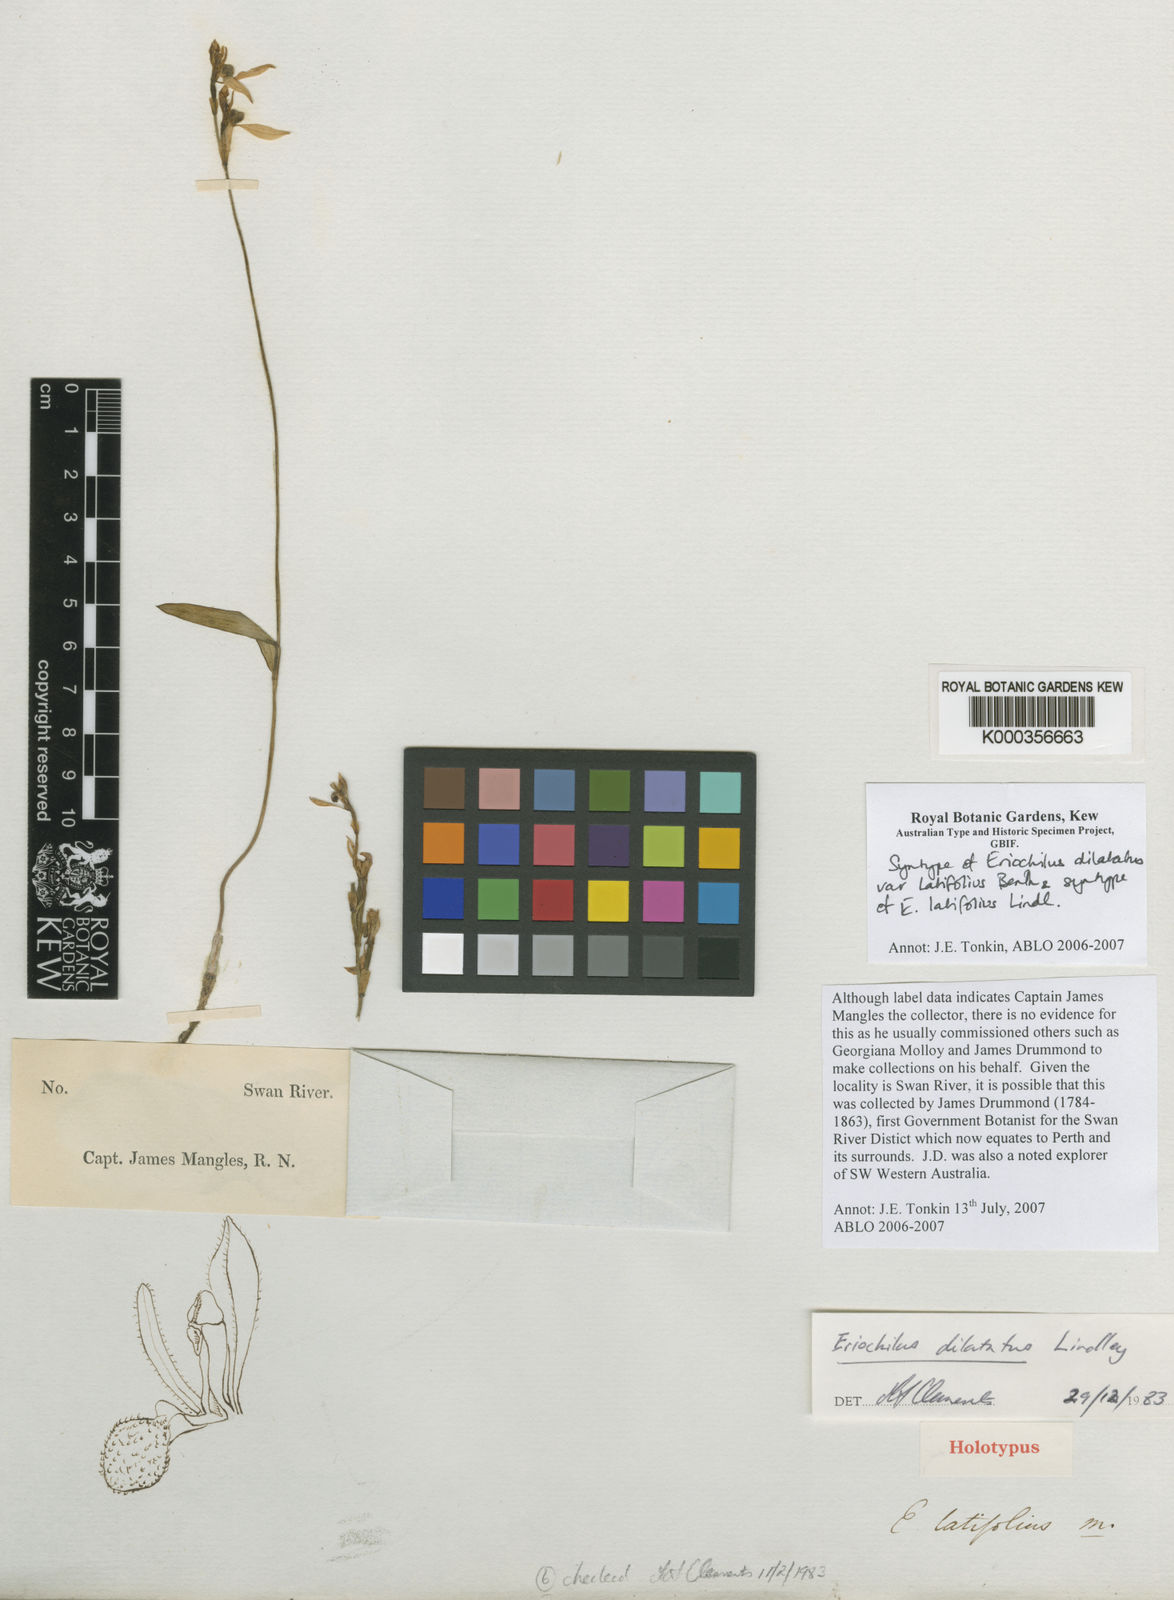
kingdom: Plantae
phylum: Tracheophyta
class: Liliopsida
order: Asparagales
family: Orchidaceae
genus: Eriochilus
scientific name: Eriochilus dilatatus
